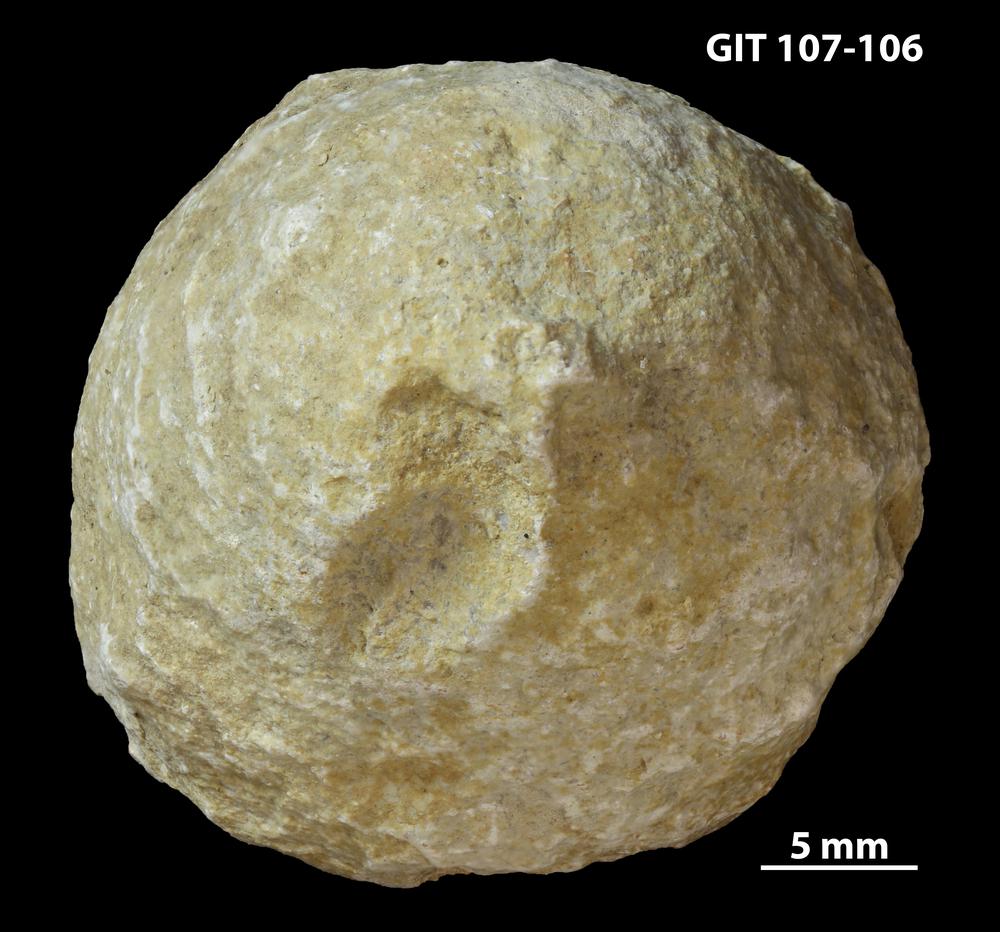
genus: Amphorichnus
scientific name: Amphorichnus
